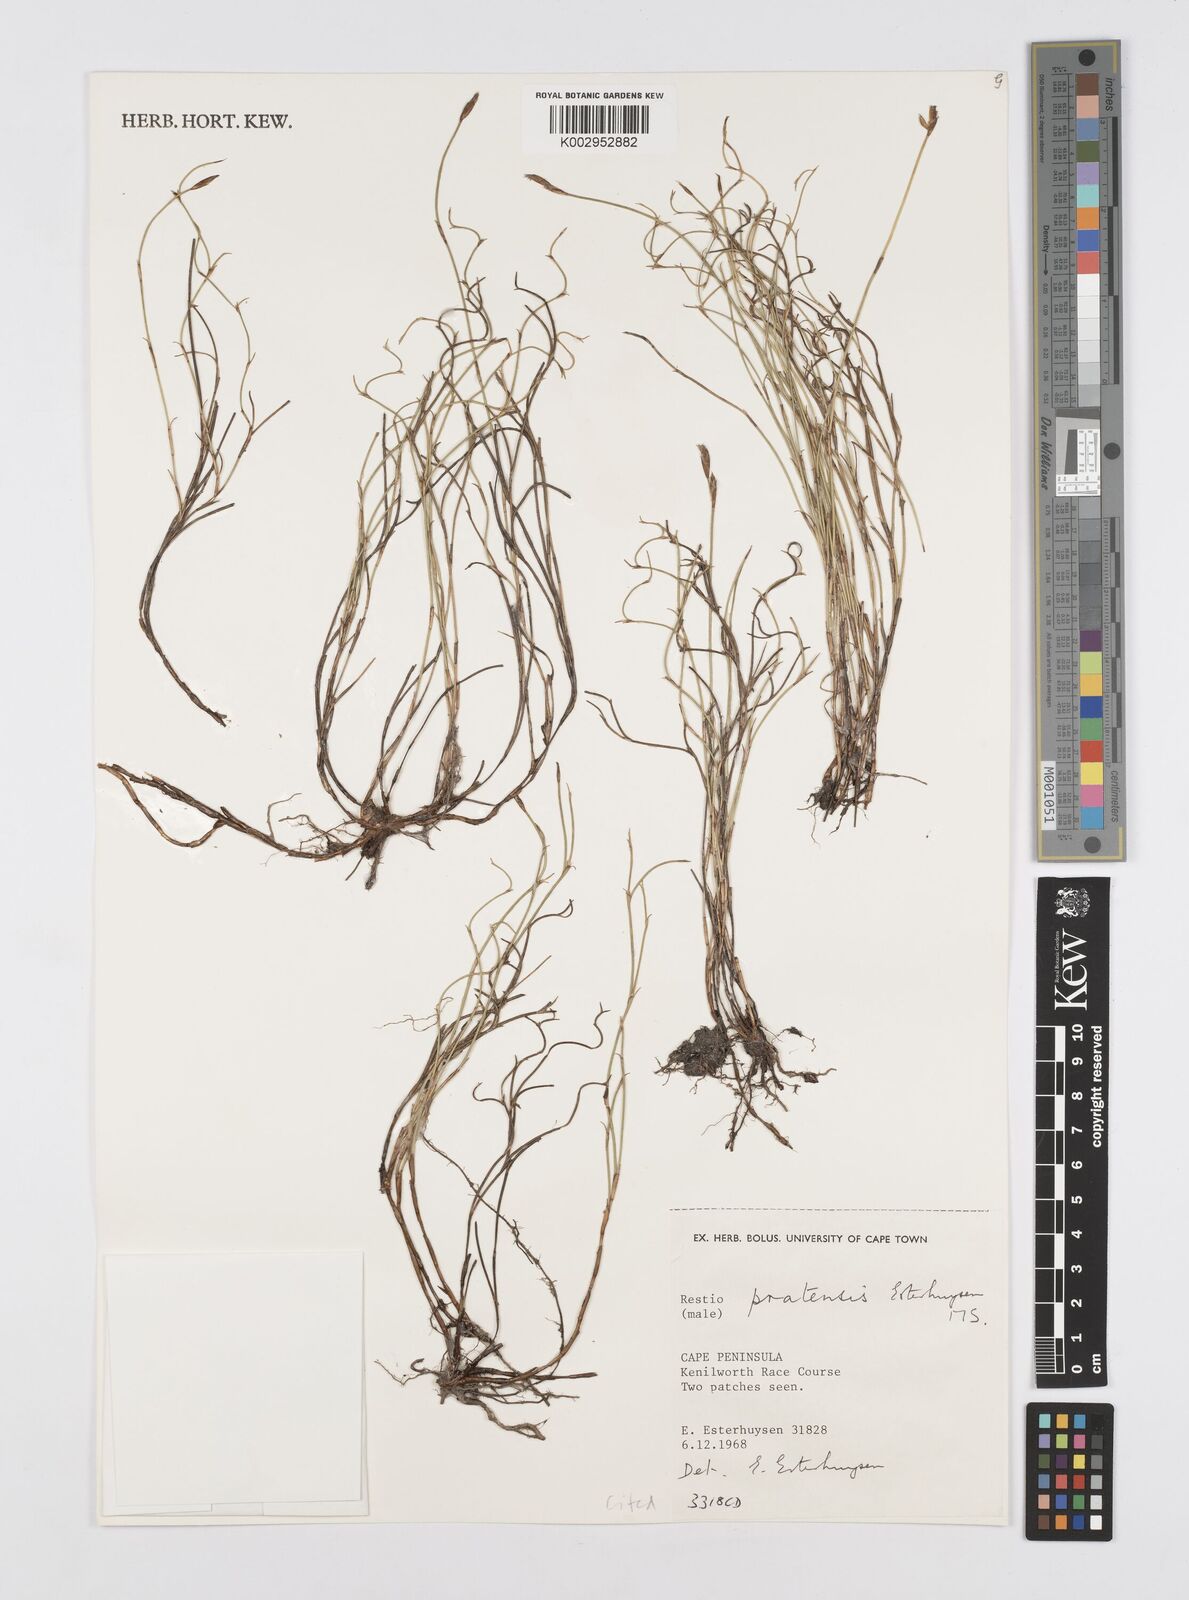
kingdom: Plantae
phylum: Tracheophyta
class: Liliopsida
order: Poales
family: Restionaceae
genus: Restio
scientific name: Restio pratensis
